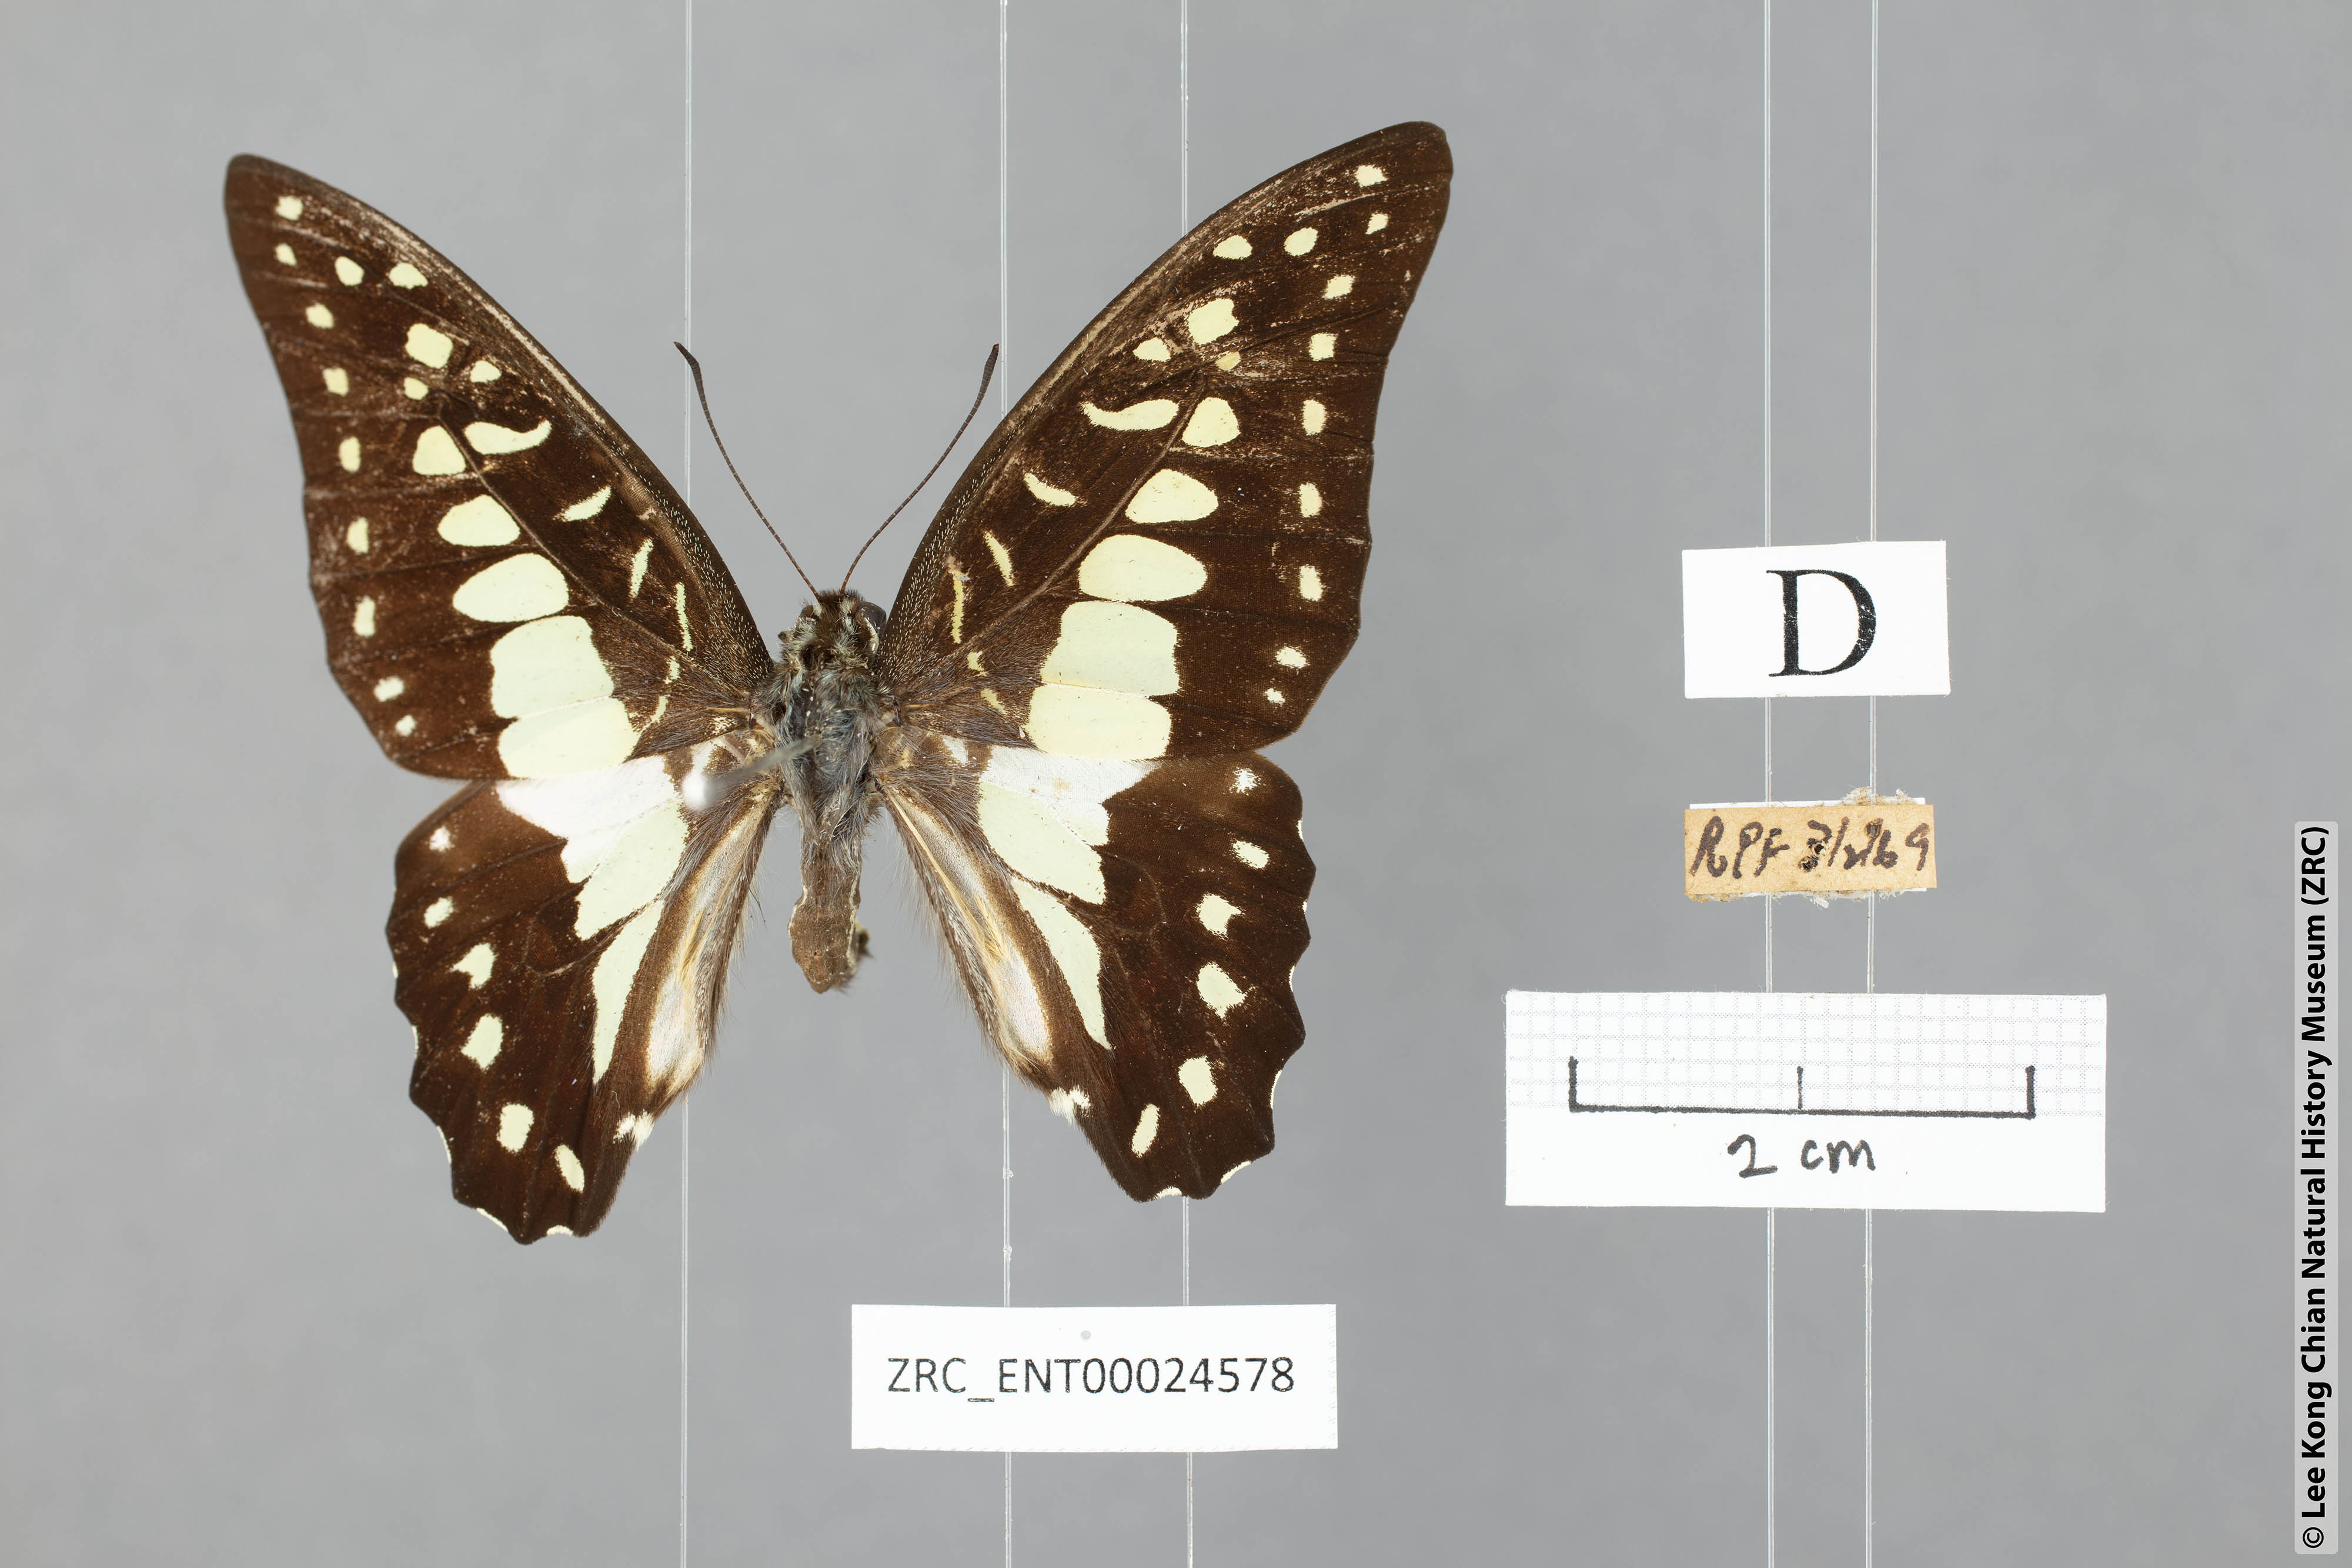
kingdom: Animalia
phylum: Arthropoda
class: Insecta
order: Lepidoptera
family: Papilionidae
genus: Graphium
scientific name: Graphium eurypylus
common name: Great jay
